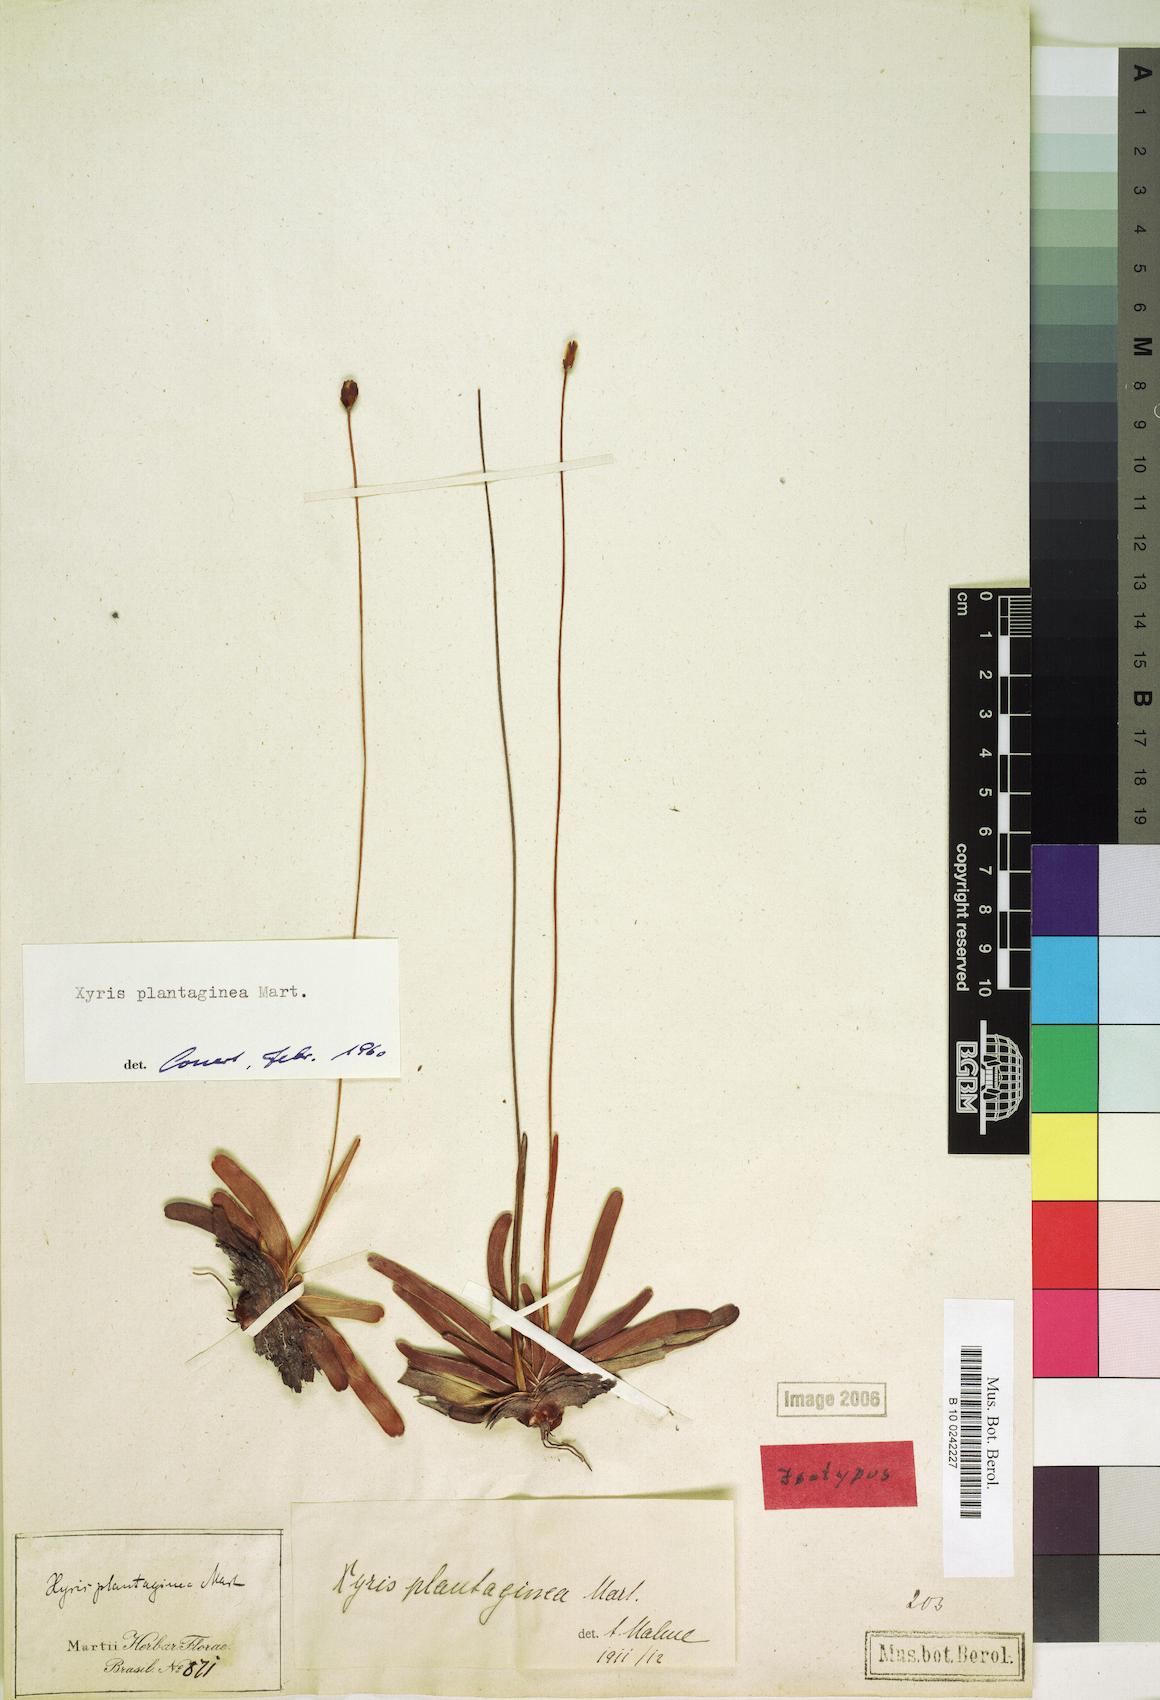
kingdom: Plantae
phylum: Tracheophyta
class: Liliopsida
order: Poales
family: Xyridaceae
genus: Xyris
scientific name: Xyris plantaginea
